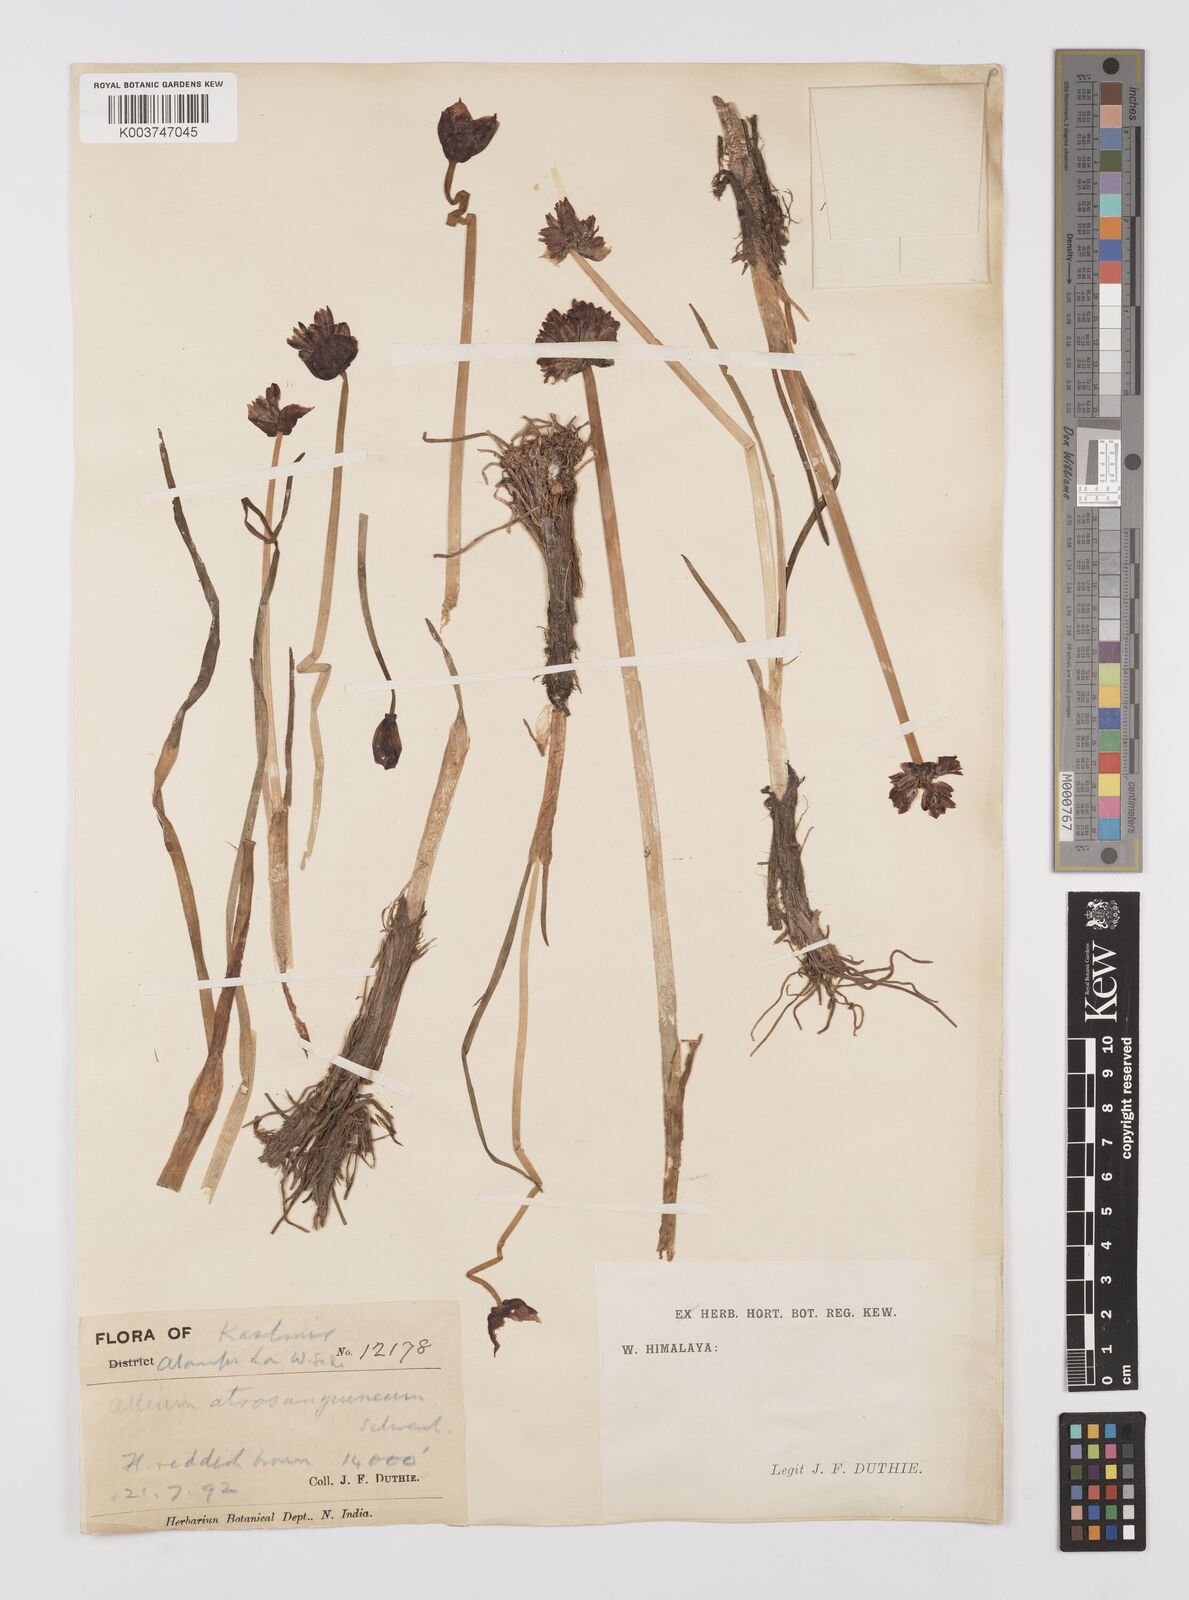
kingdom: Plantae
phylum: Tracheophyta
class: Liliopsida
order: Asparagales
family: Amaryllidaceae
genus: Allium
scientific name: Allium atrosanguineum
